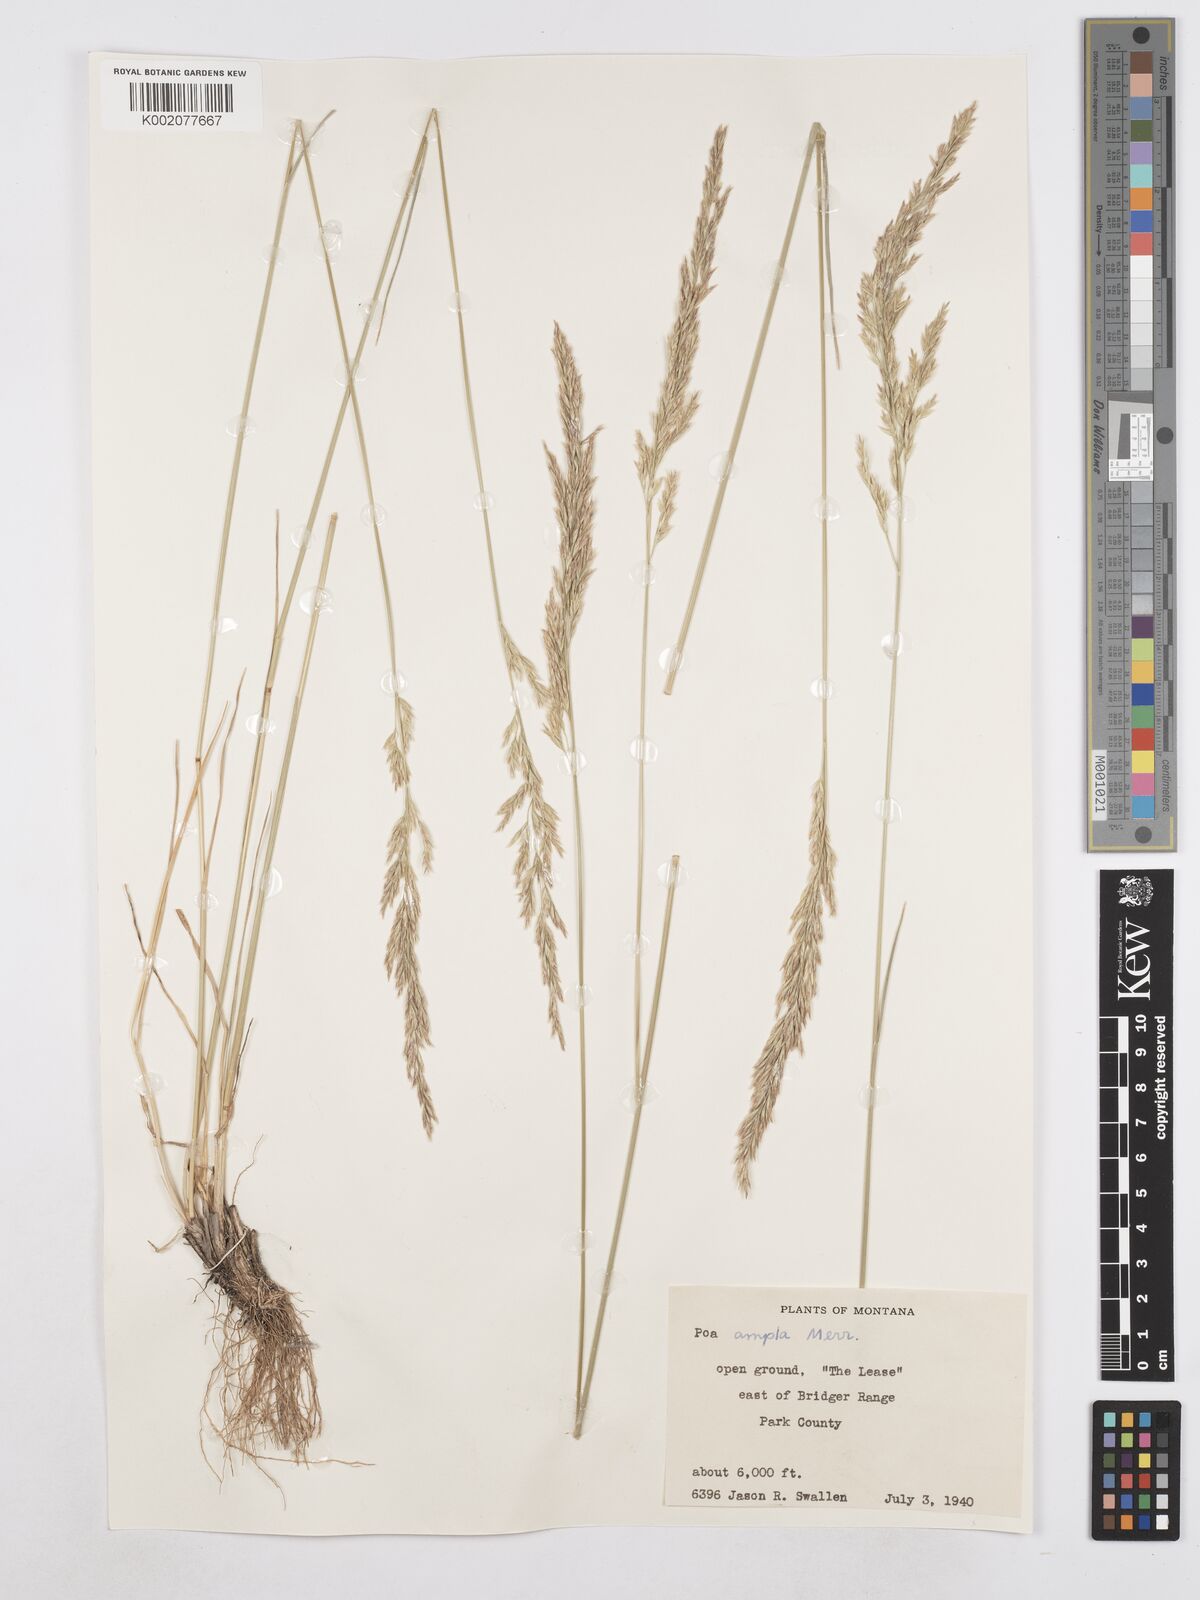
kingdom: Plantae
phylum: Tracheophyta
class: Liliopsida
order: Poales
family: Poaceae
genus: Poa
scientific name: Poa secunda
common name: Sandberg bluegrass
